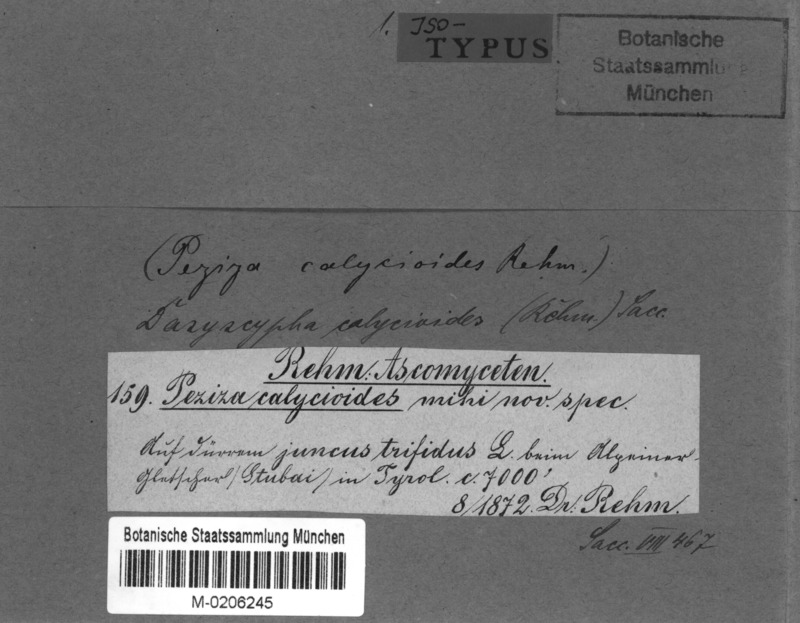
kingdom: Fungi
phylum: Ascomycota
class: Leotiomycetes
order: Helotiales
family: Lachnaceae
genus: Brunnipila
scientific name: Brunnipila calycioides
